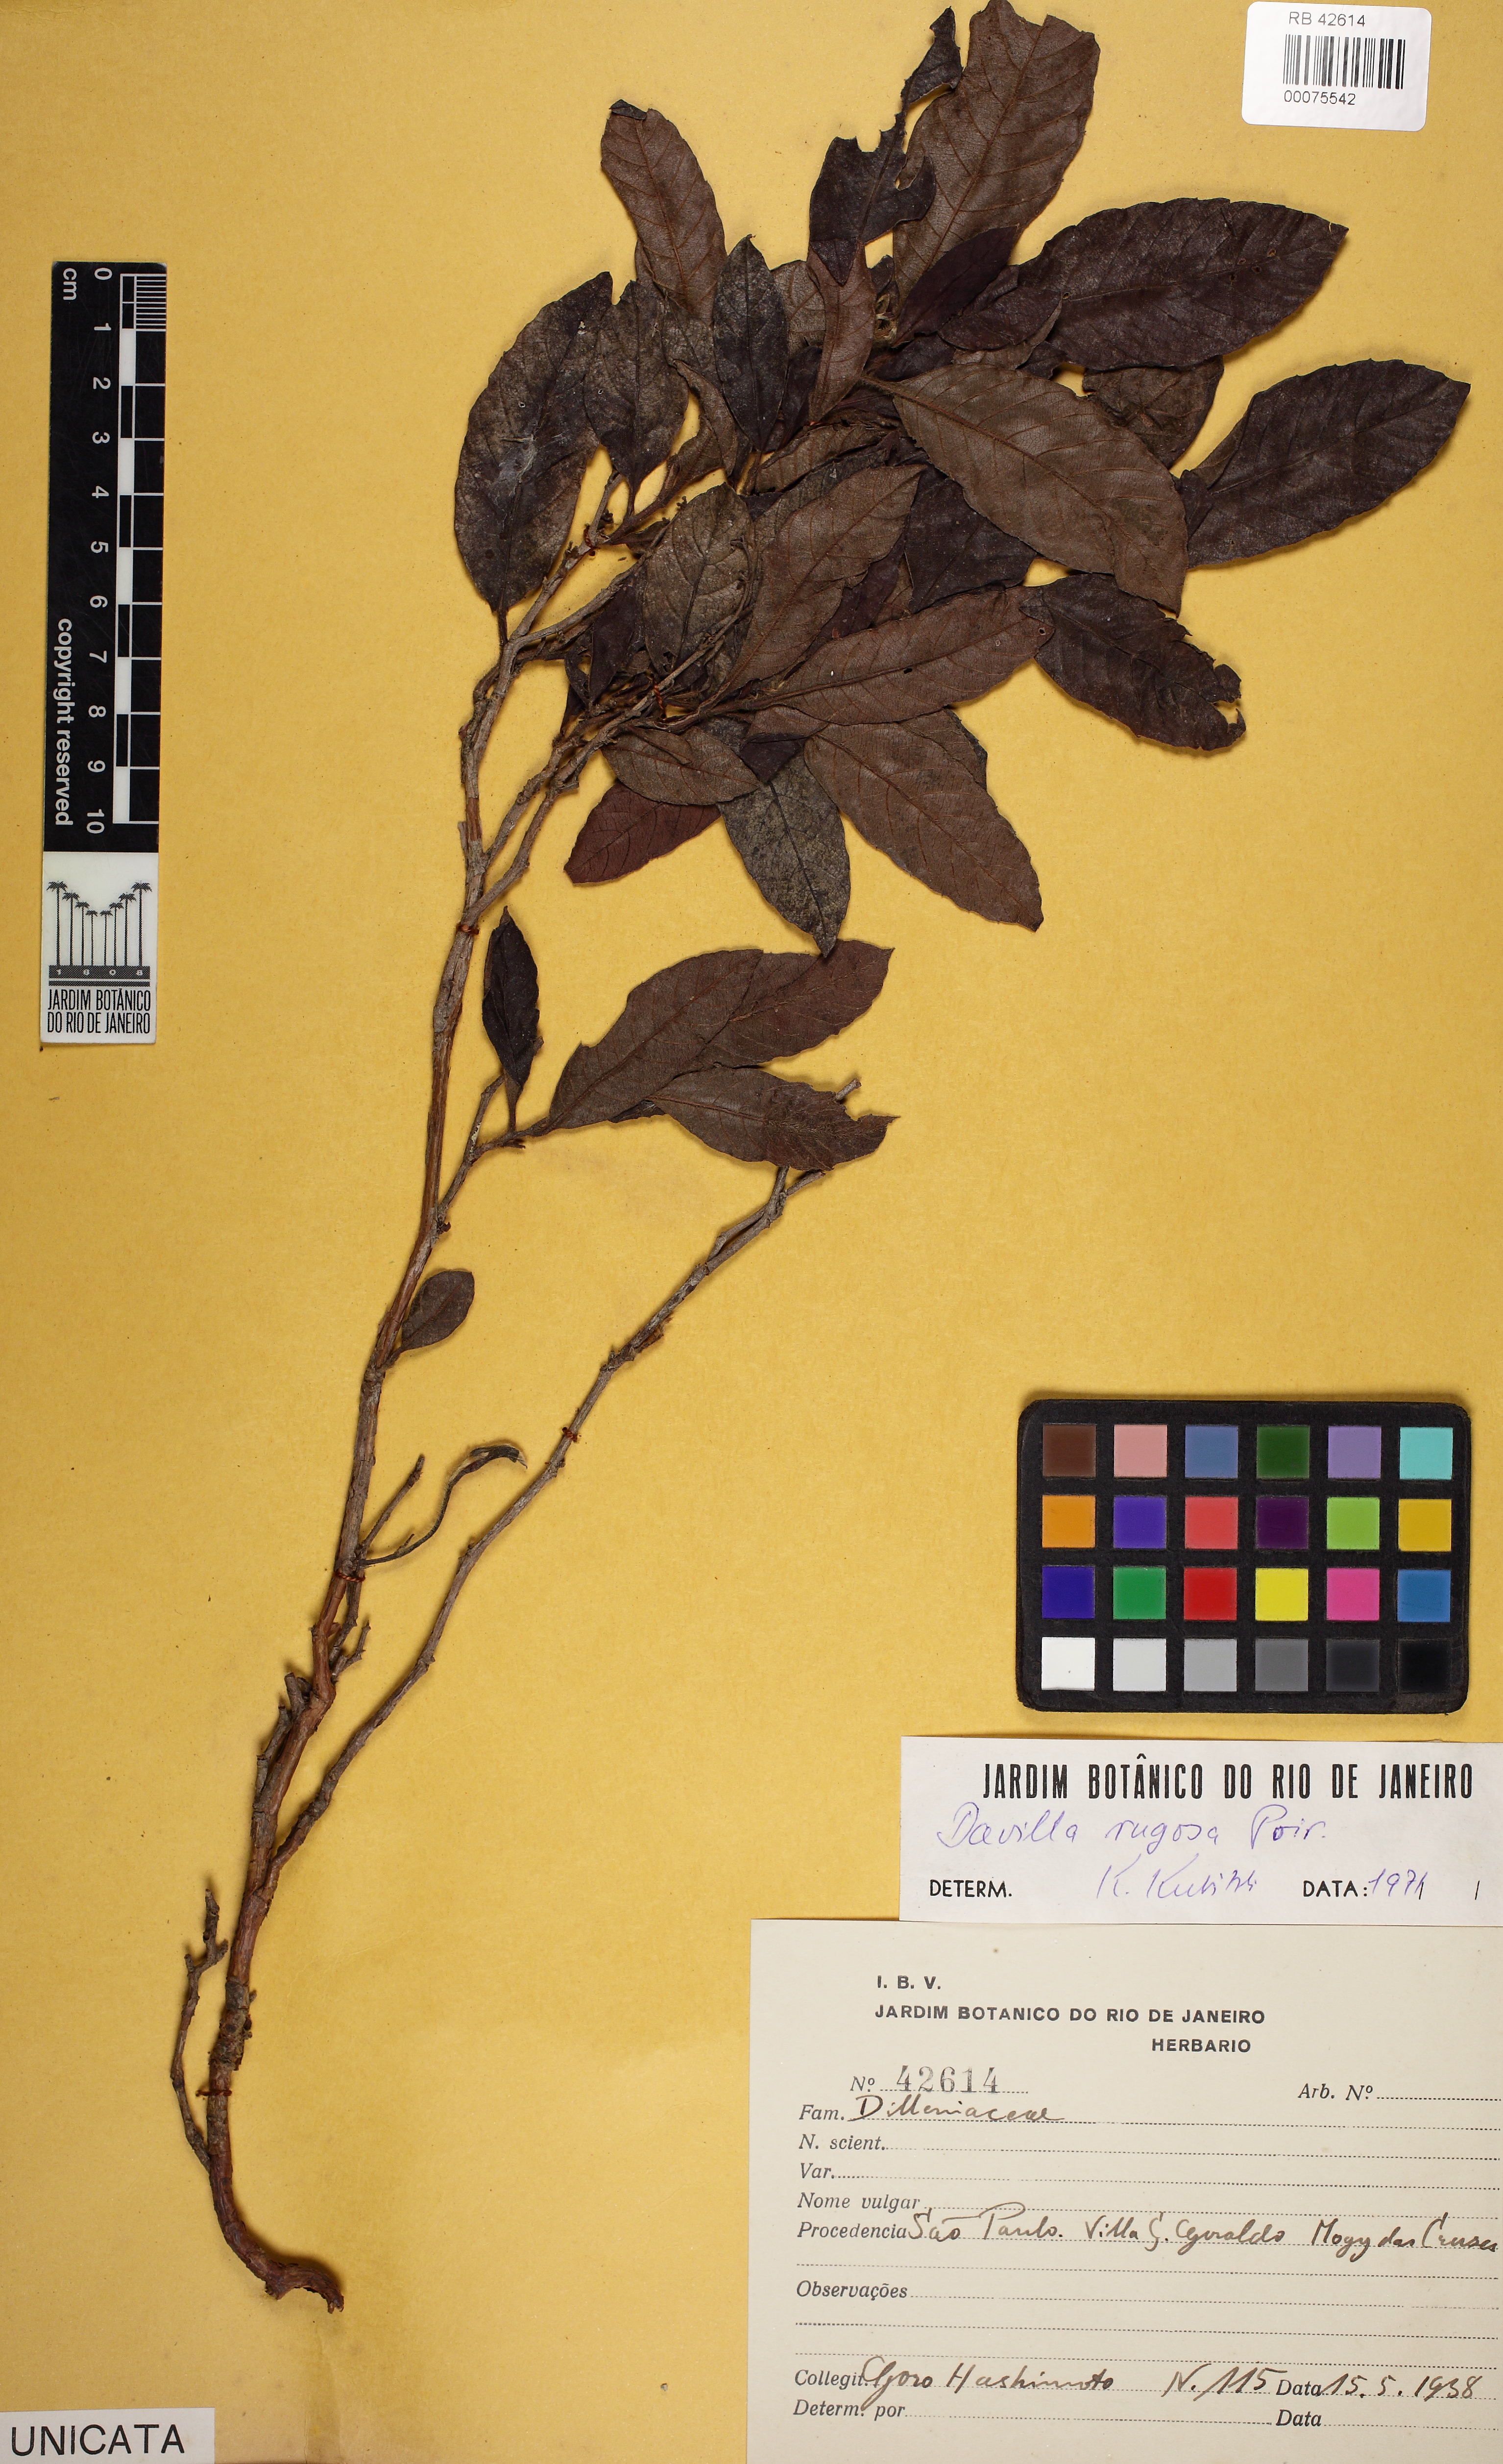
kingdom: Plantae
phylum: Tracheophyta
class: Magnoliopsida
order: Dilleniales
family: Dilleniaceae
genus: Davilla
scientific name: Davilla rugosa
